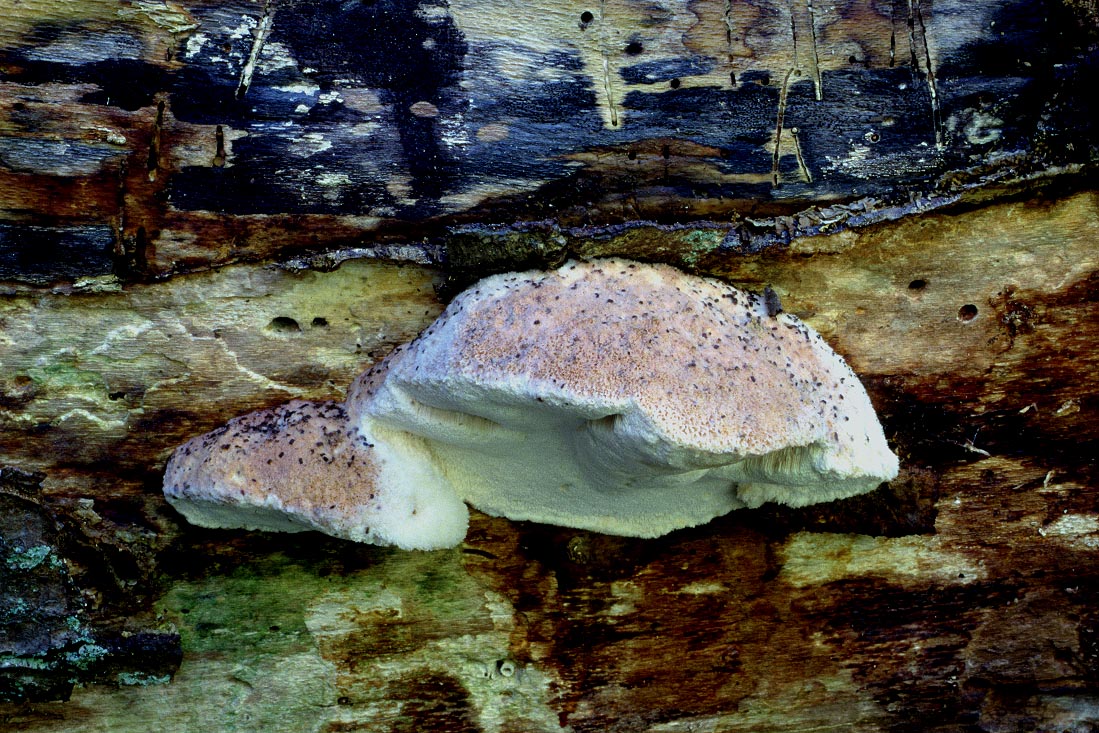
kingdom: Fungi
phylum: Basidiomycota
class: Agaricomycetes
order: Polyporales
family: Meruliaceae
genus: Pappia
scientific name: Pappia fissilis
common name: rosa fedtporesvamp
